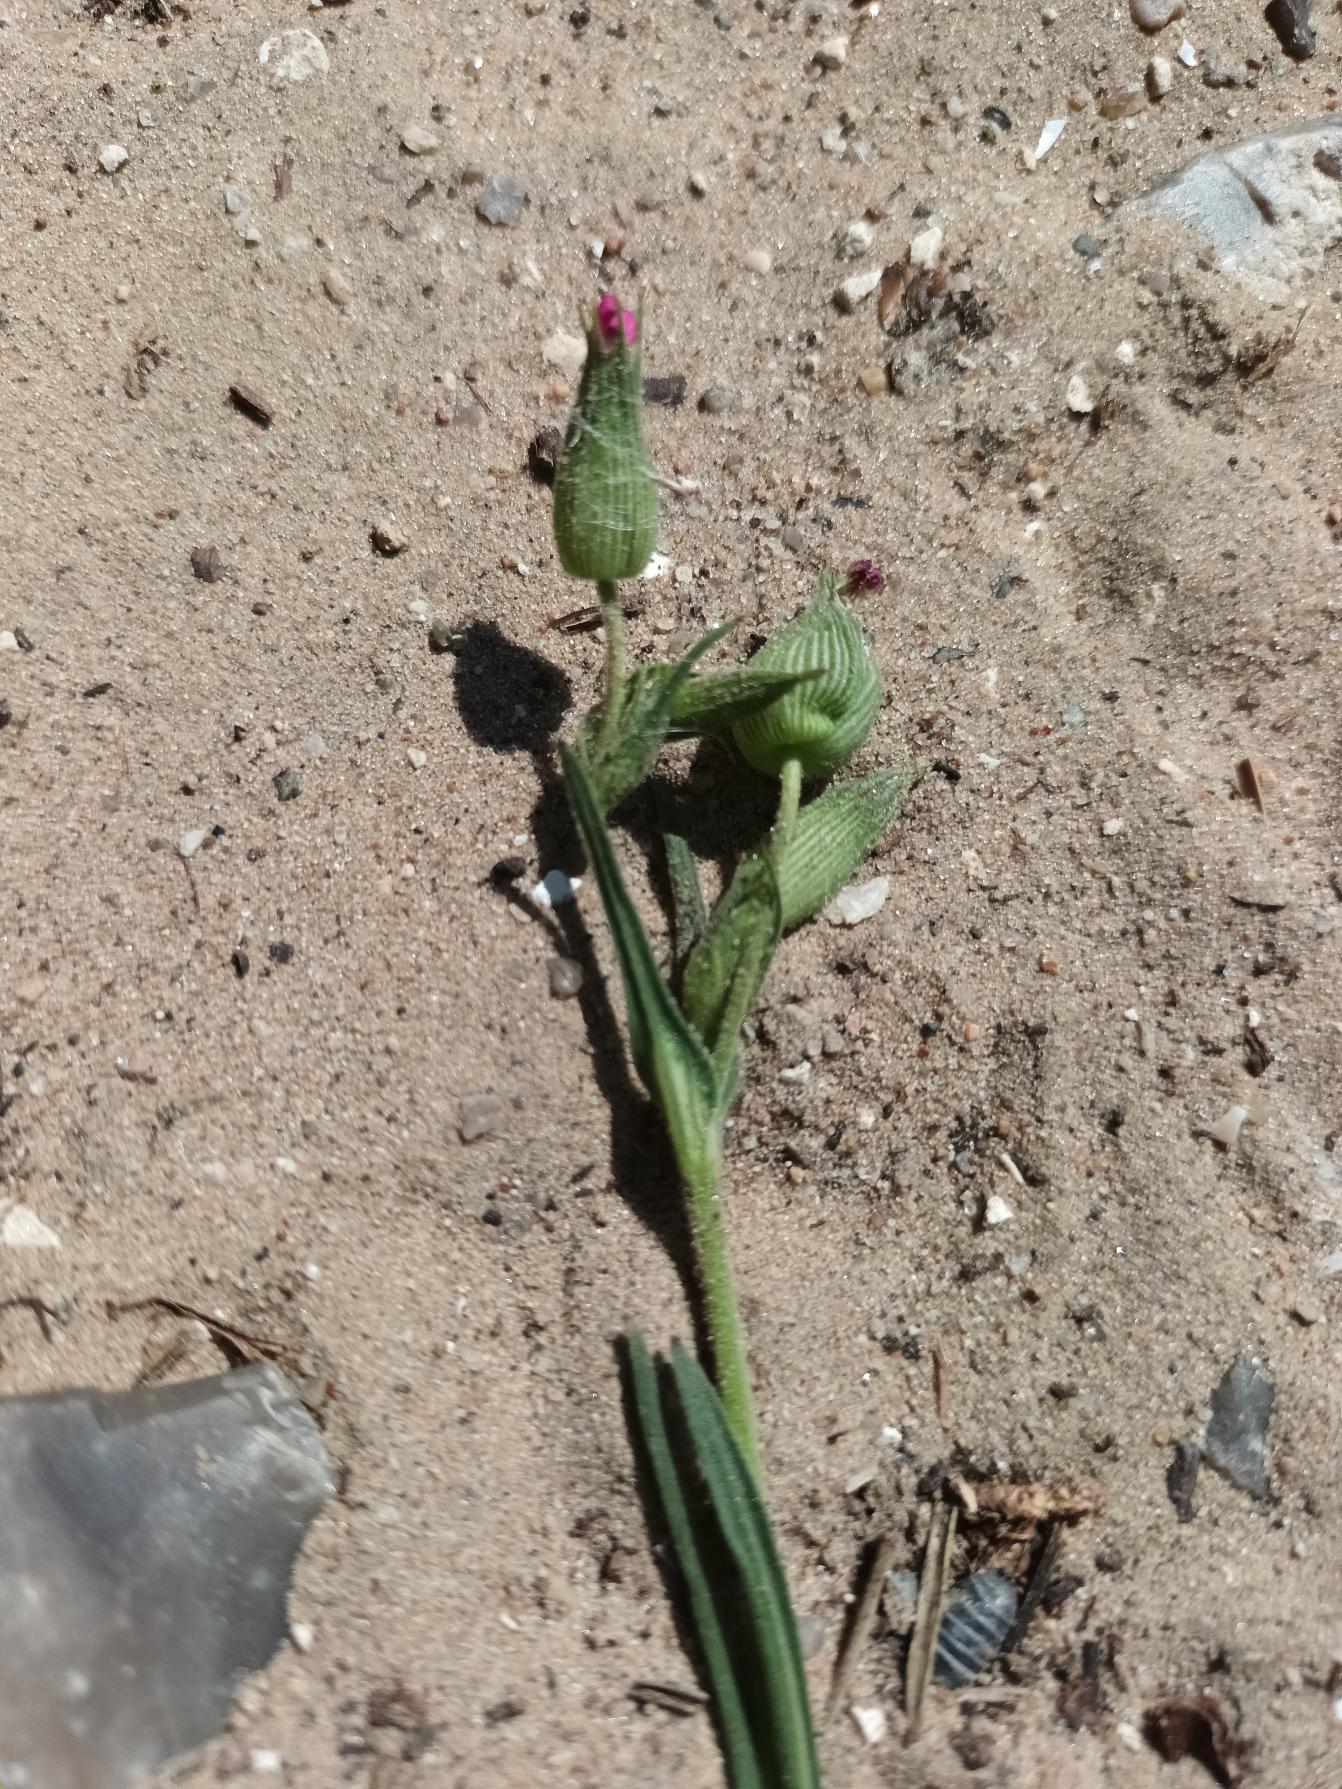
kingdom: Plantae
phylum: Tracheophyta
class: Magnoliopsida
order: Caryophyllales
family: Caryophyllaceae
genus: Silene
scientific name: Silene conica
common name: Kegle-limurt
